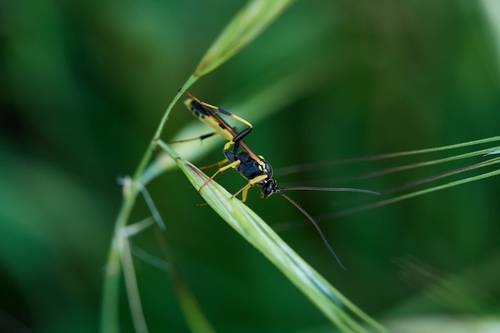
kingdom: Animalia
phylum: Arthropoda
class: Insecta
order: Hymenoptera
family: Ichneumonidae
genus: Amblyteles
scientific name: Amblyteles armatorius
